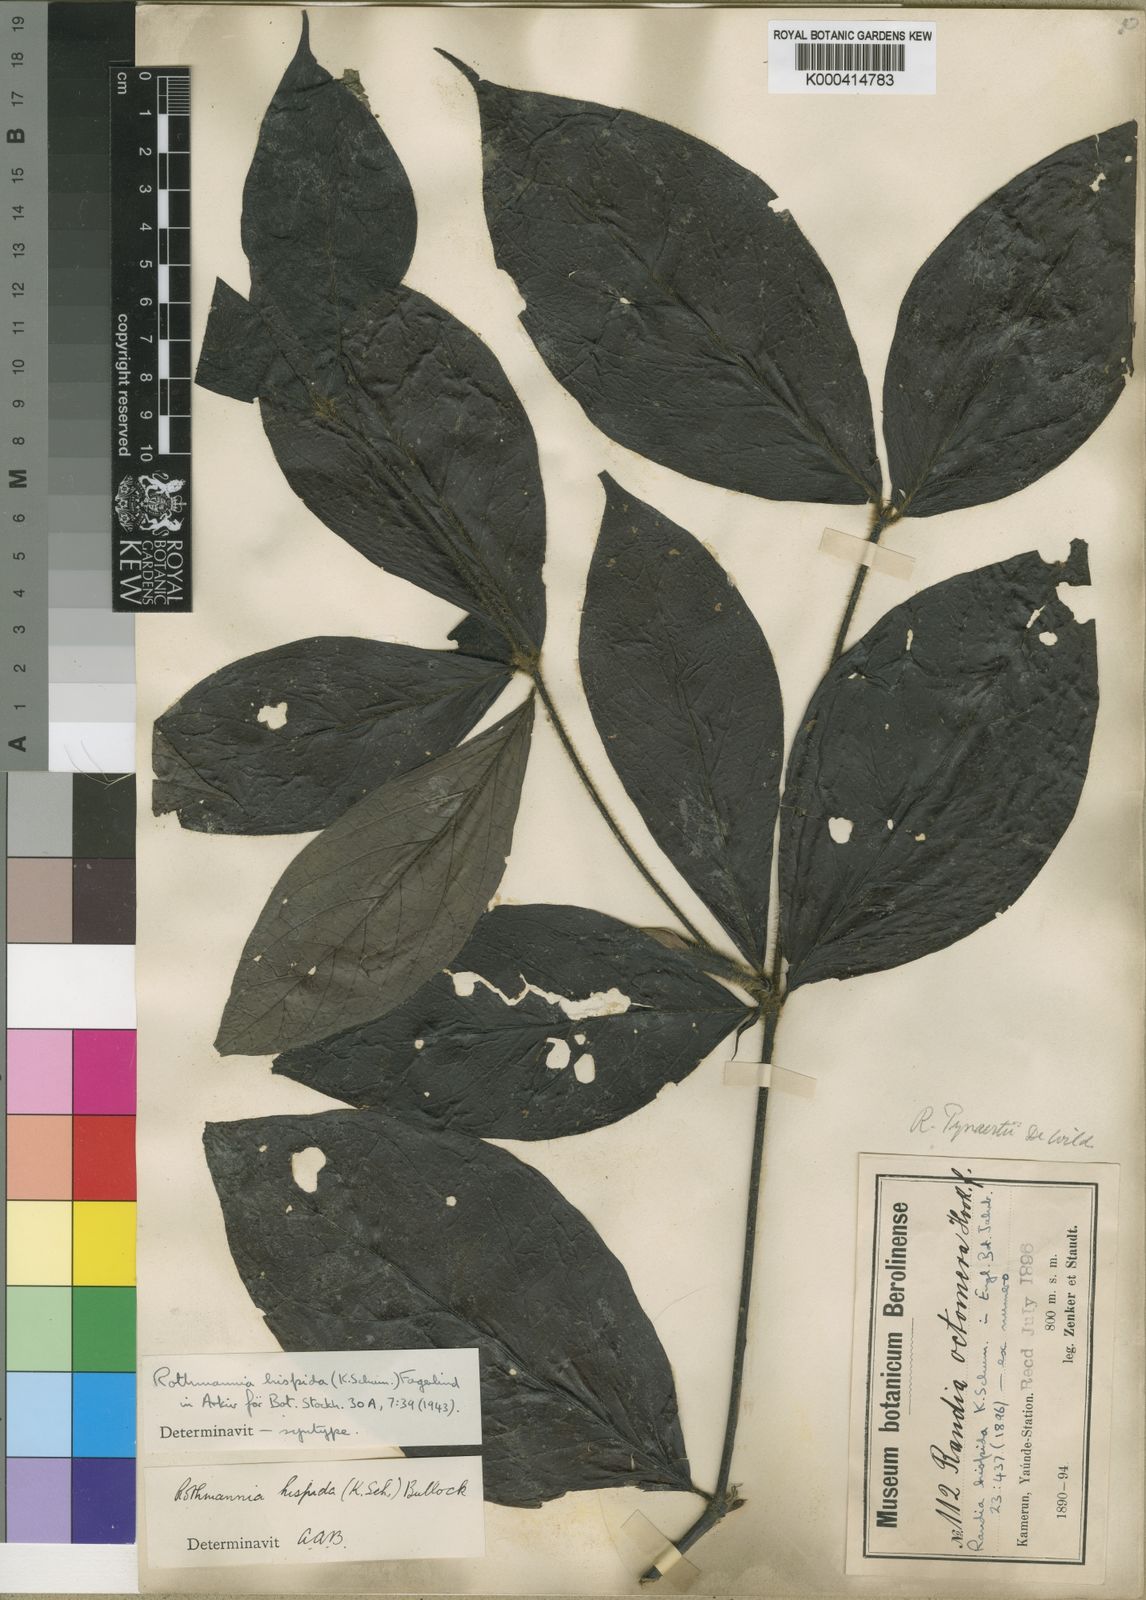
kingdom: Plantae
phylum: Tracheophyta
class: Magnoliopsida
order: Gentianales
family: Rubiaceae
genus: Rothmannia
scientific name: Rothmannia hispida
